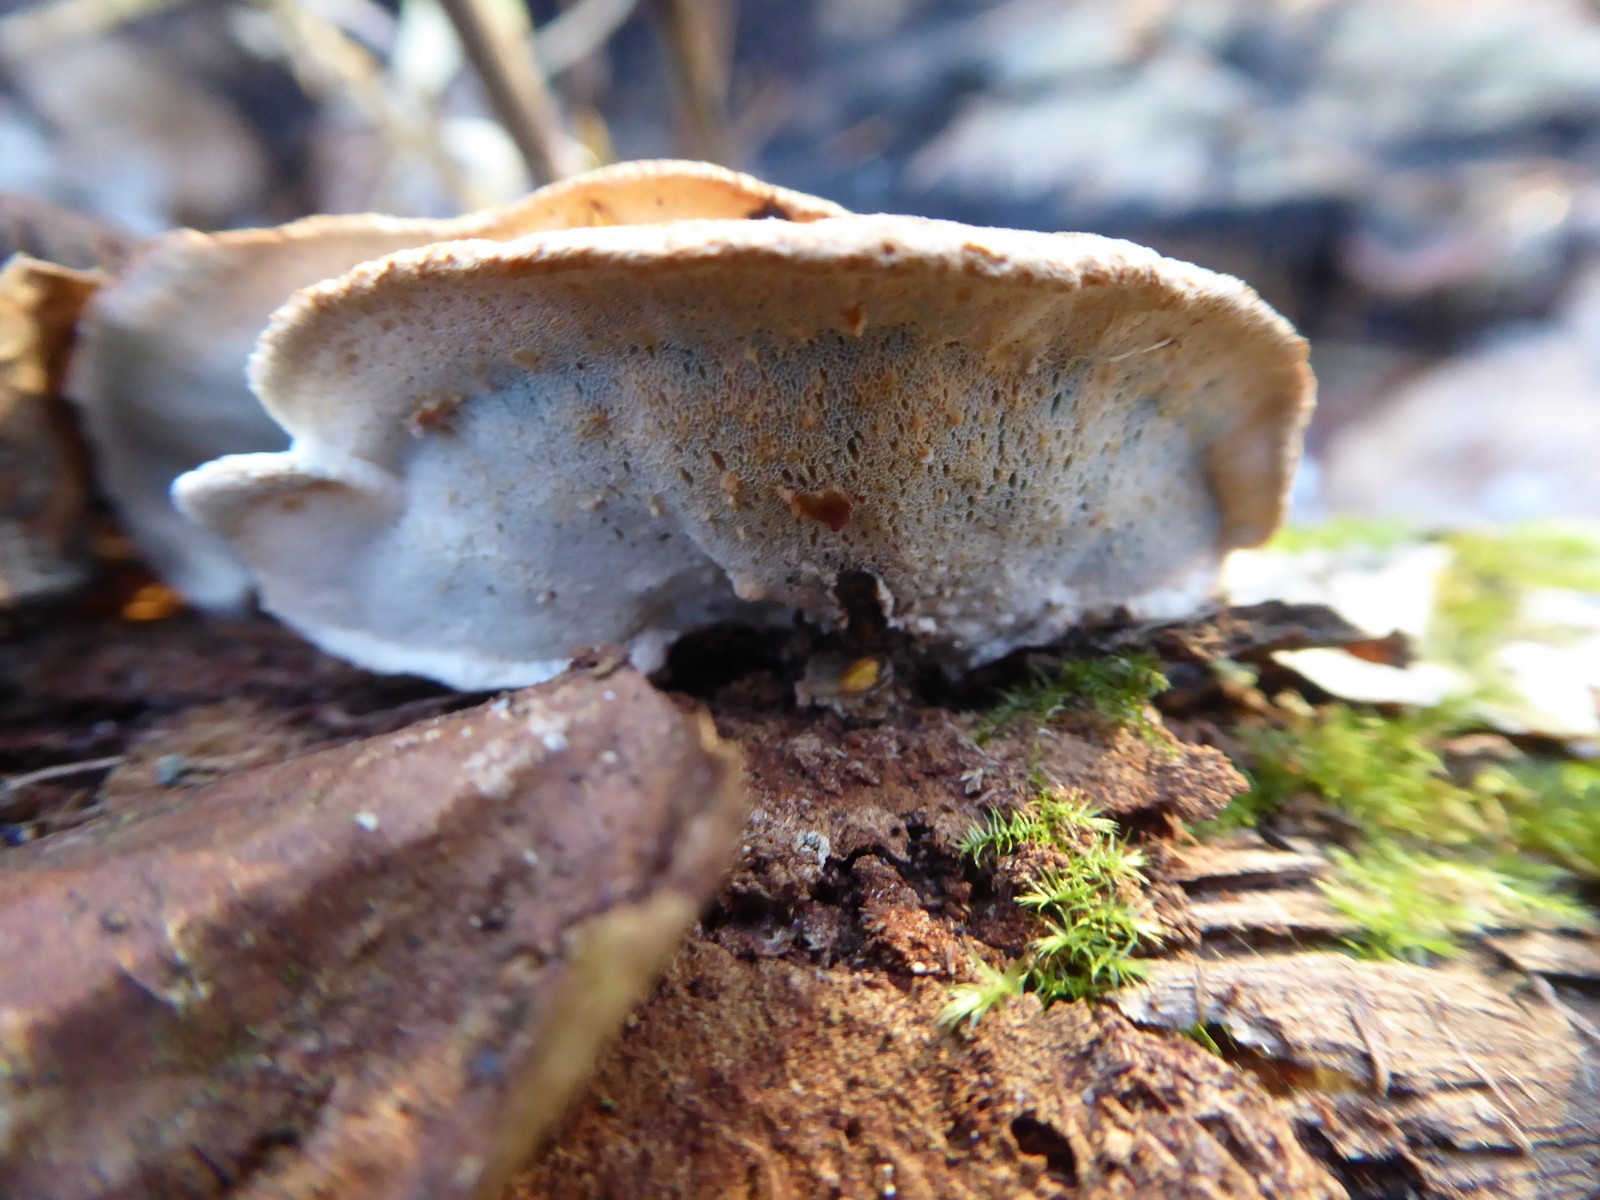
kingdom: Fungi
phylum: Basidiomycota
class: Agaricomycetes
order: Polyporales
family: Incrustoporiaceae
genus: Skeletocutis
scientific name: Skeletocutis nemoralis
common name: stor krystalporesvamp
